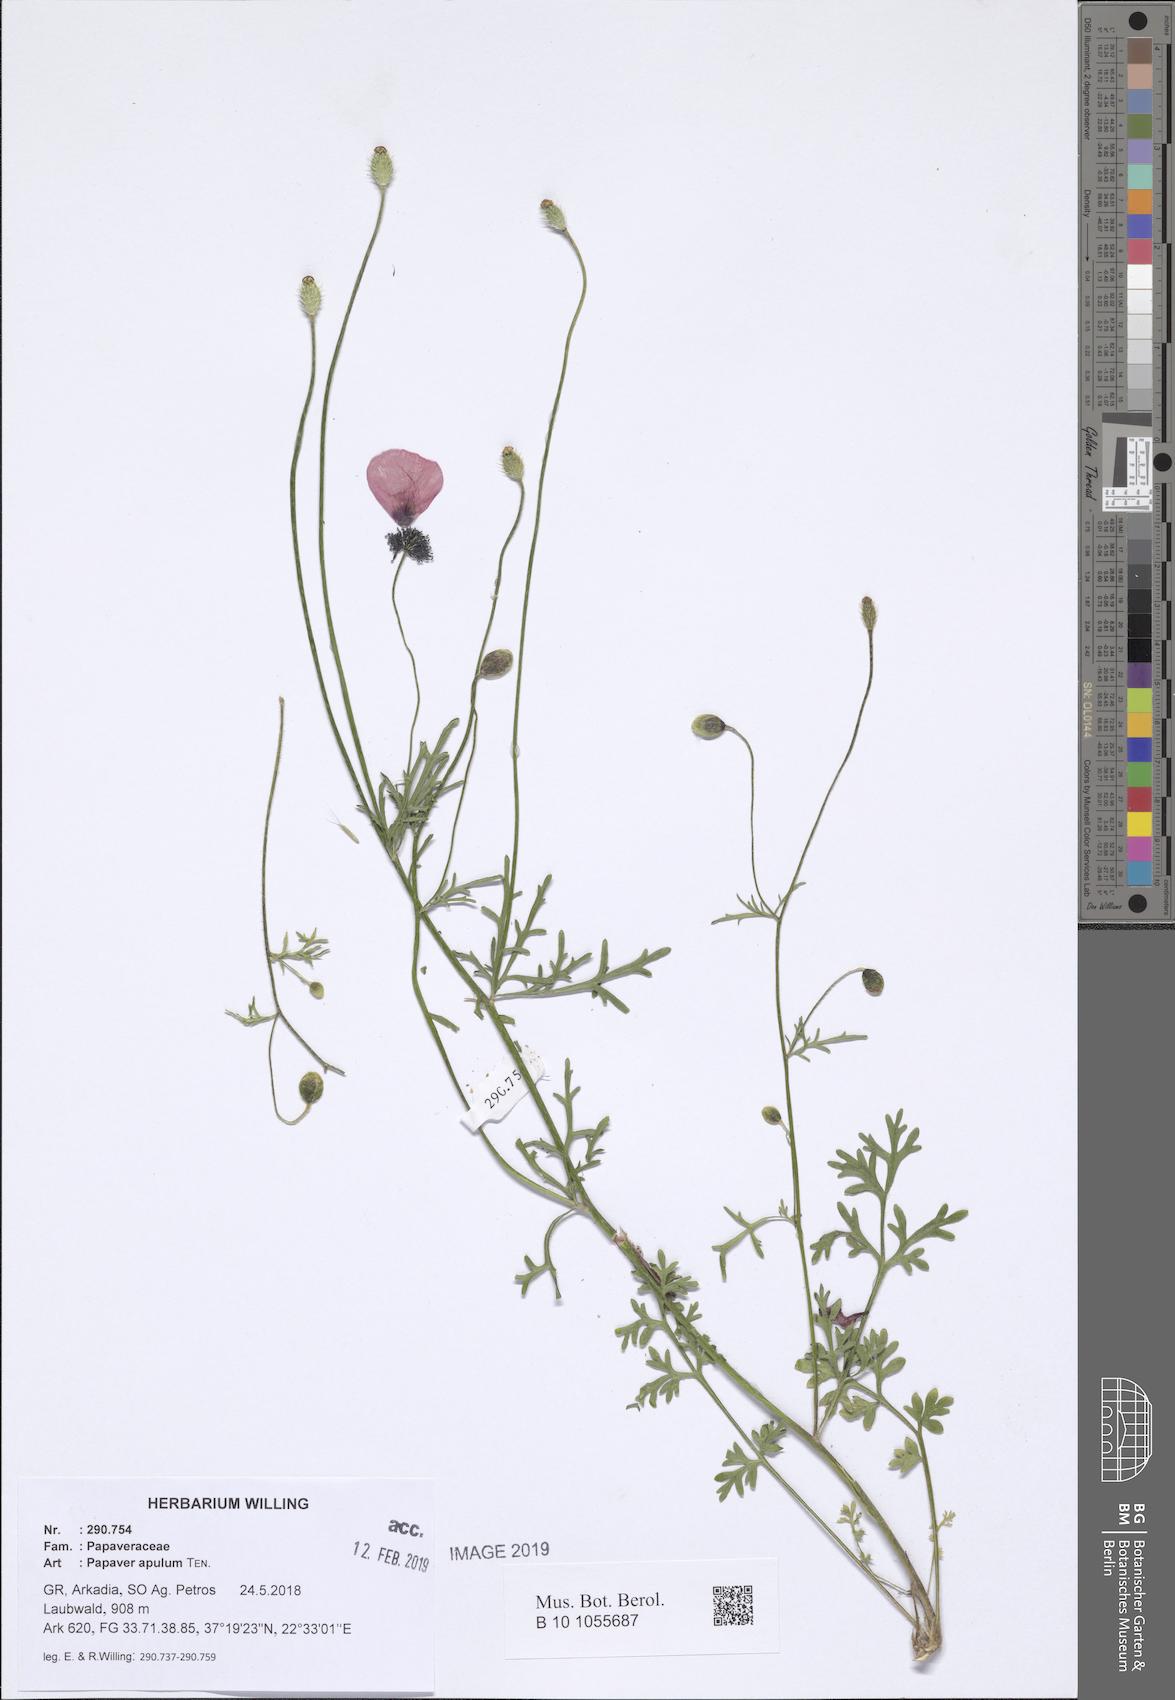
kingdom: Plantae
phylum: Tracheophyta
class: Magnoliopsida
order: Ranunculales
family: Papaveraceae
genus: Roemeria
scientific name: Roemeria apula
